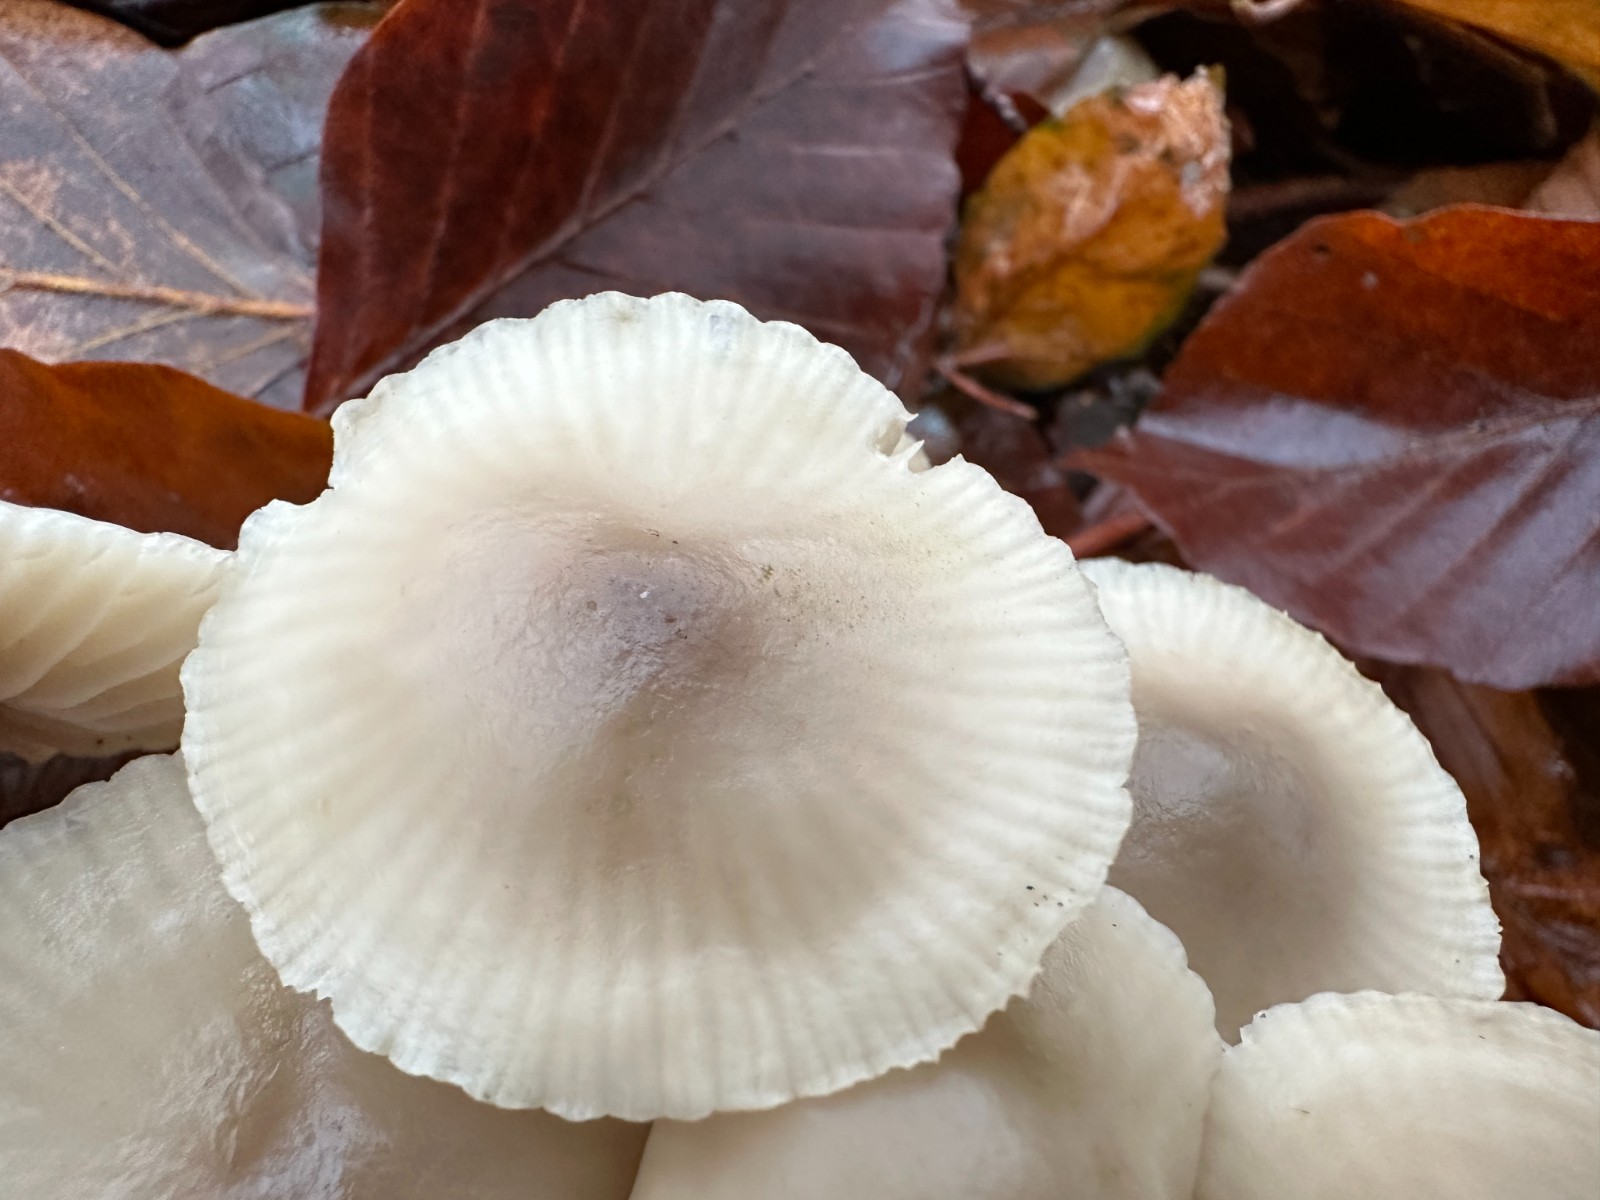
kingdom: Fungi
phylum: Basidiomycota
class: Agaricomycetes
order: Agaricales
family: Marasmiaceae
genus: Marasmius
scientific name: Marasmius wynneae
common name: hvælvet bruskhat
